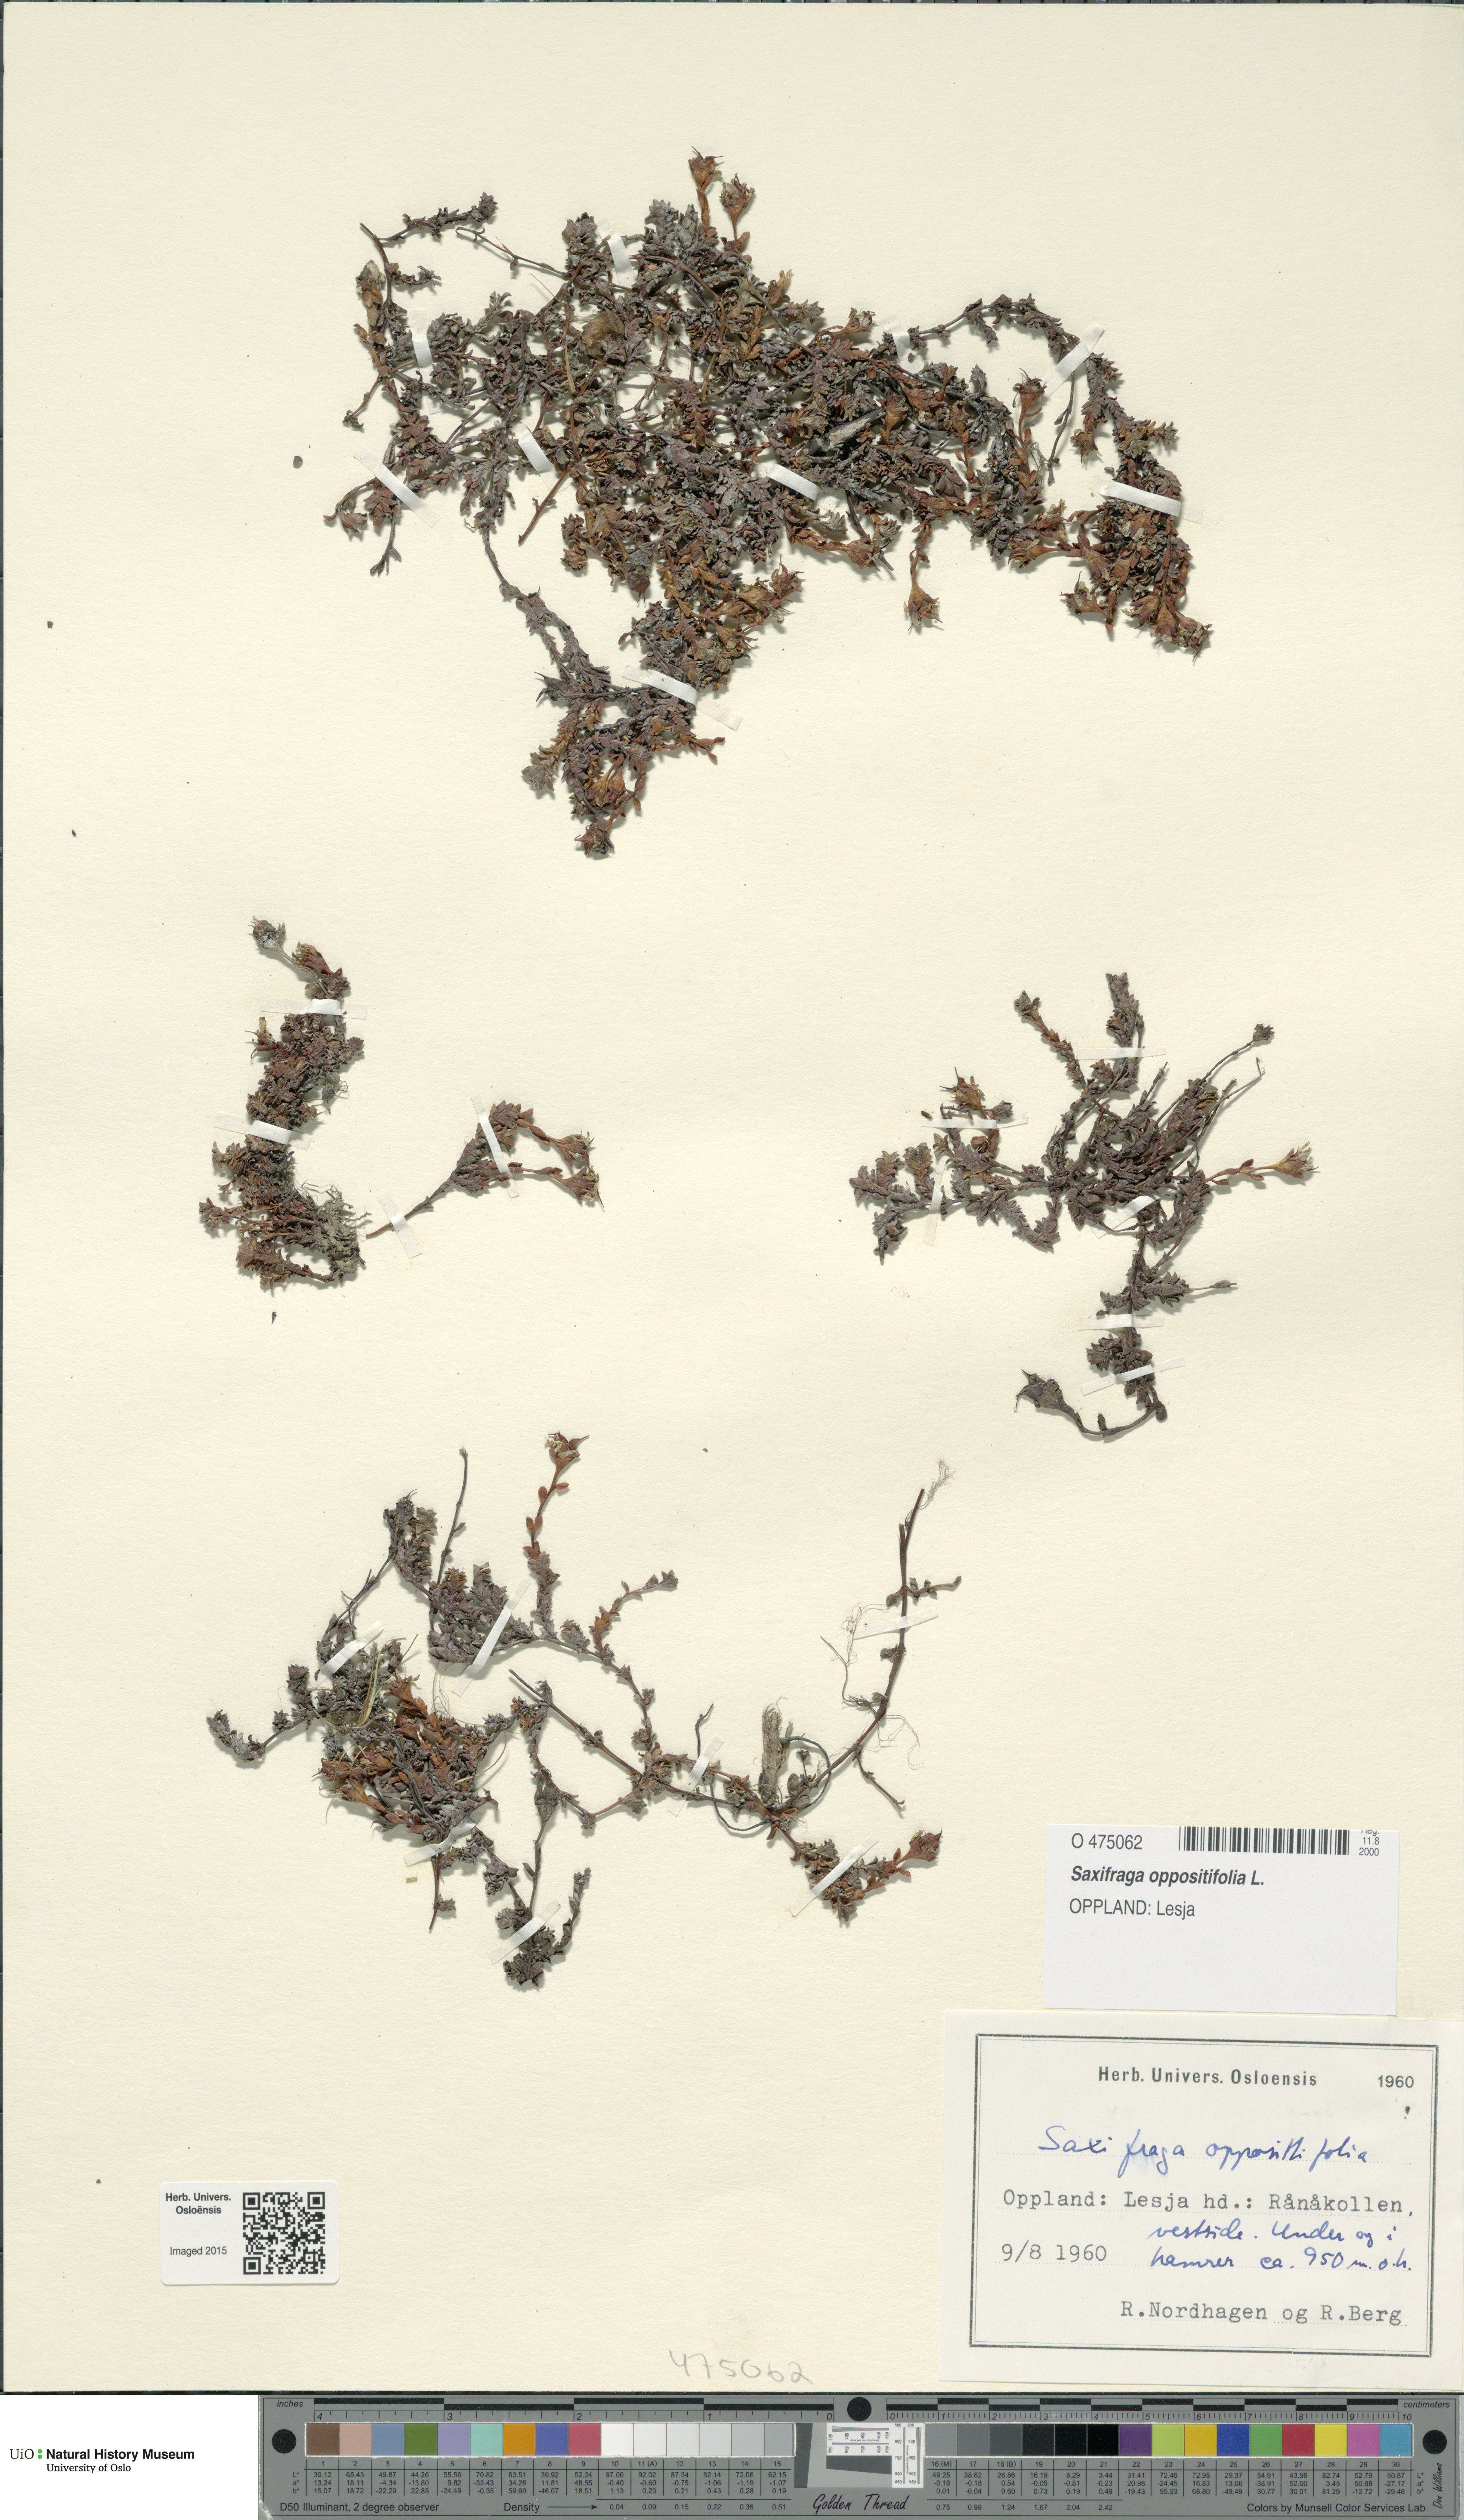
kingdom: Plantae
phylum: Tracheophyta
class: Magnoliopsida
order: Saxifragales
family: Saxifragaceae
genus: Saxifraga
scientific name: Saxifraga oppositifolia
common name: Purple saxifrage
